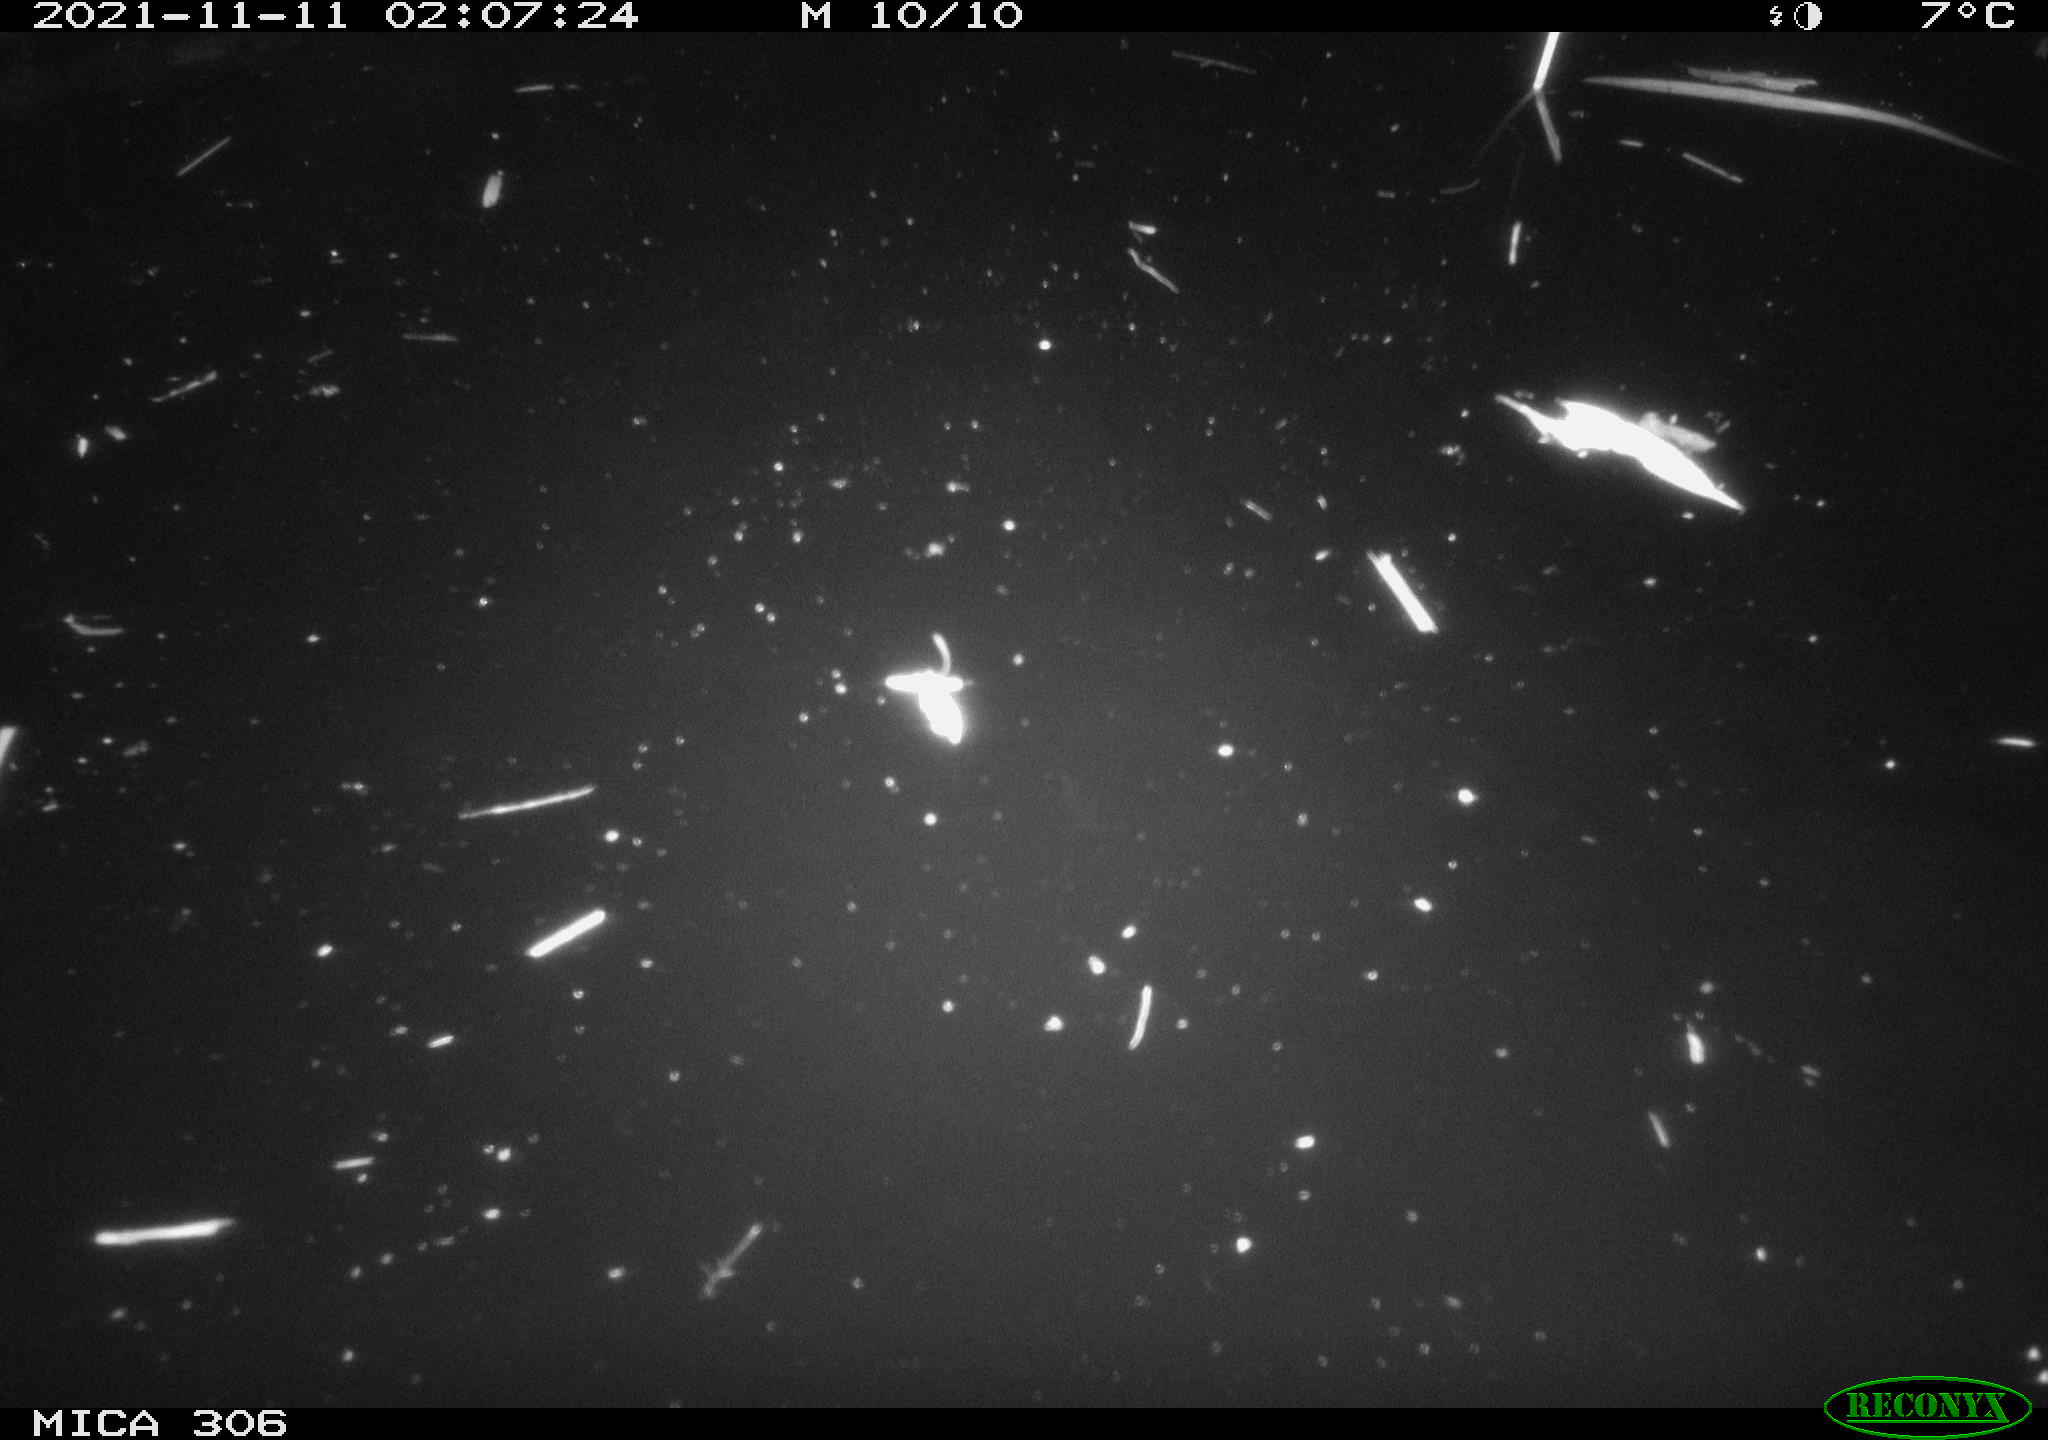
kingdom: Animalia
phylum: Chordata
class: Mammalia
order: Rodentia
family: Cricetidae
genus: Ondatra
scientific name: Ondatra zibethicus
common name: Muskrat
